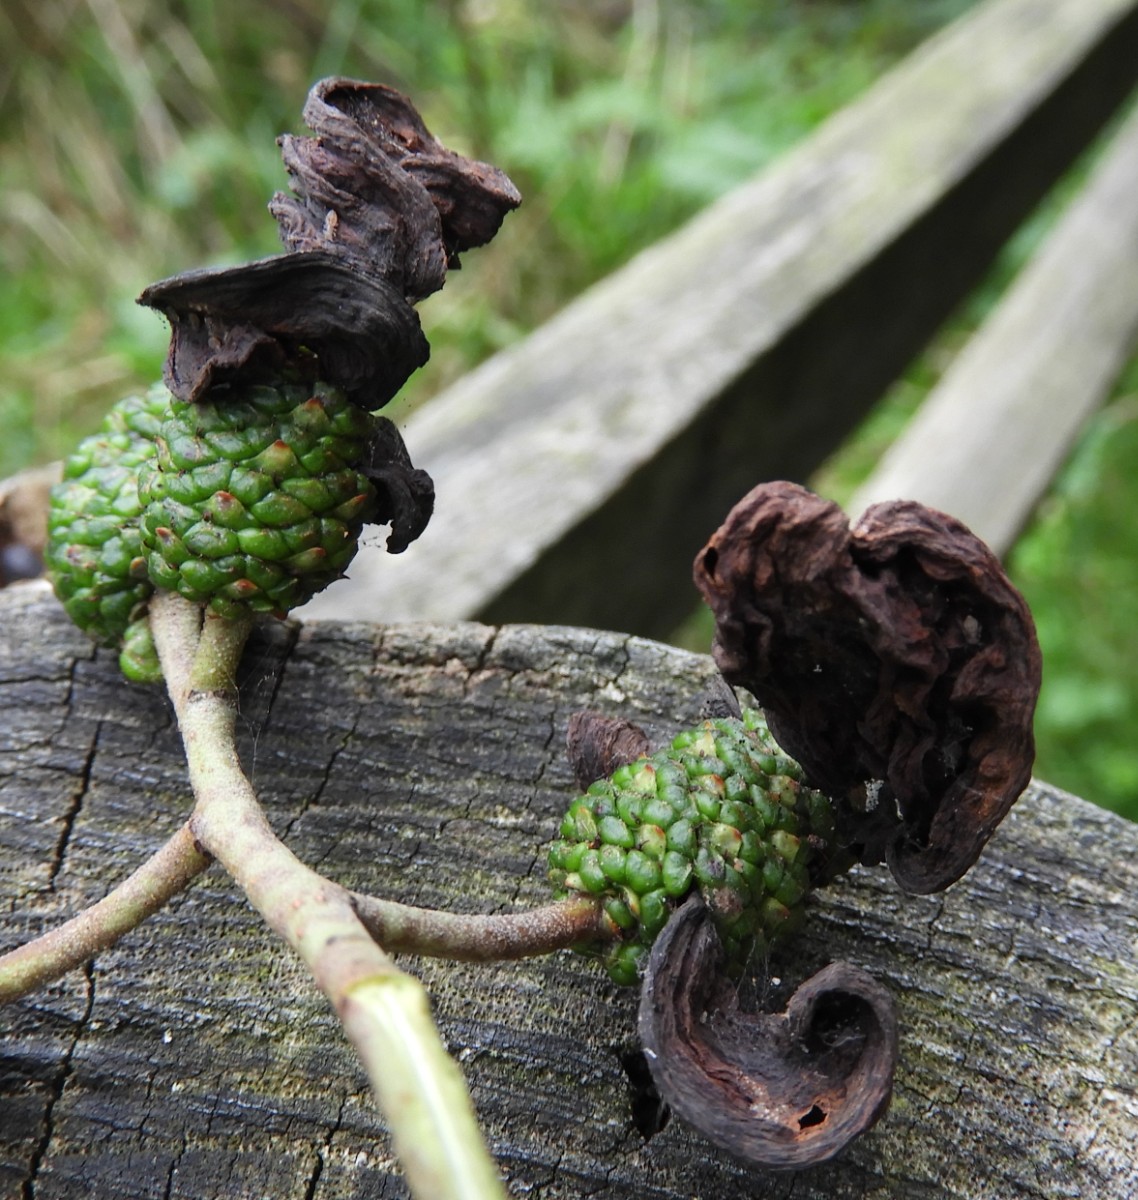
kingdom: Fungi
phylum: Ascomycota
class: Taphrinomycetes
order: Taphrinales
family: Taphrinaceae
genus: Taphrina
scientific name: Taphrina alni
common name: Alder tongue
